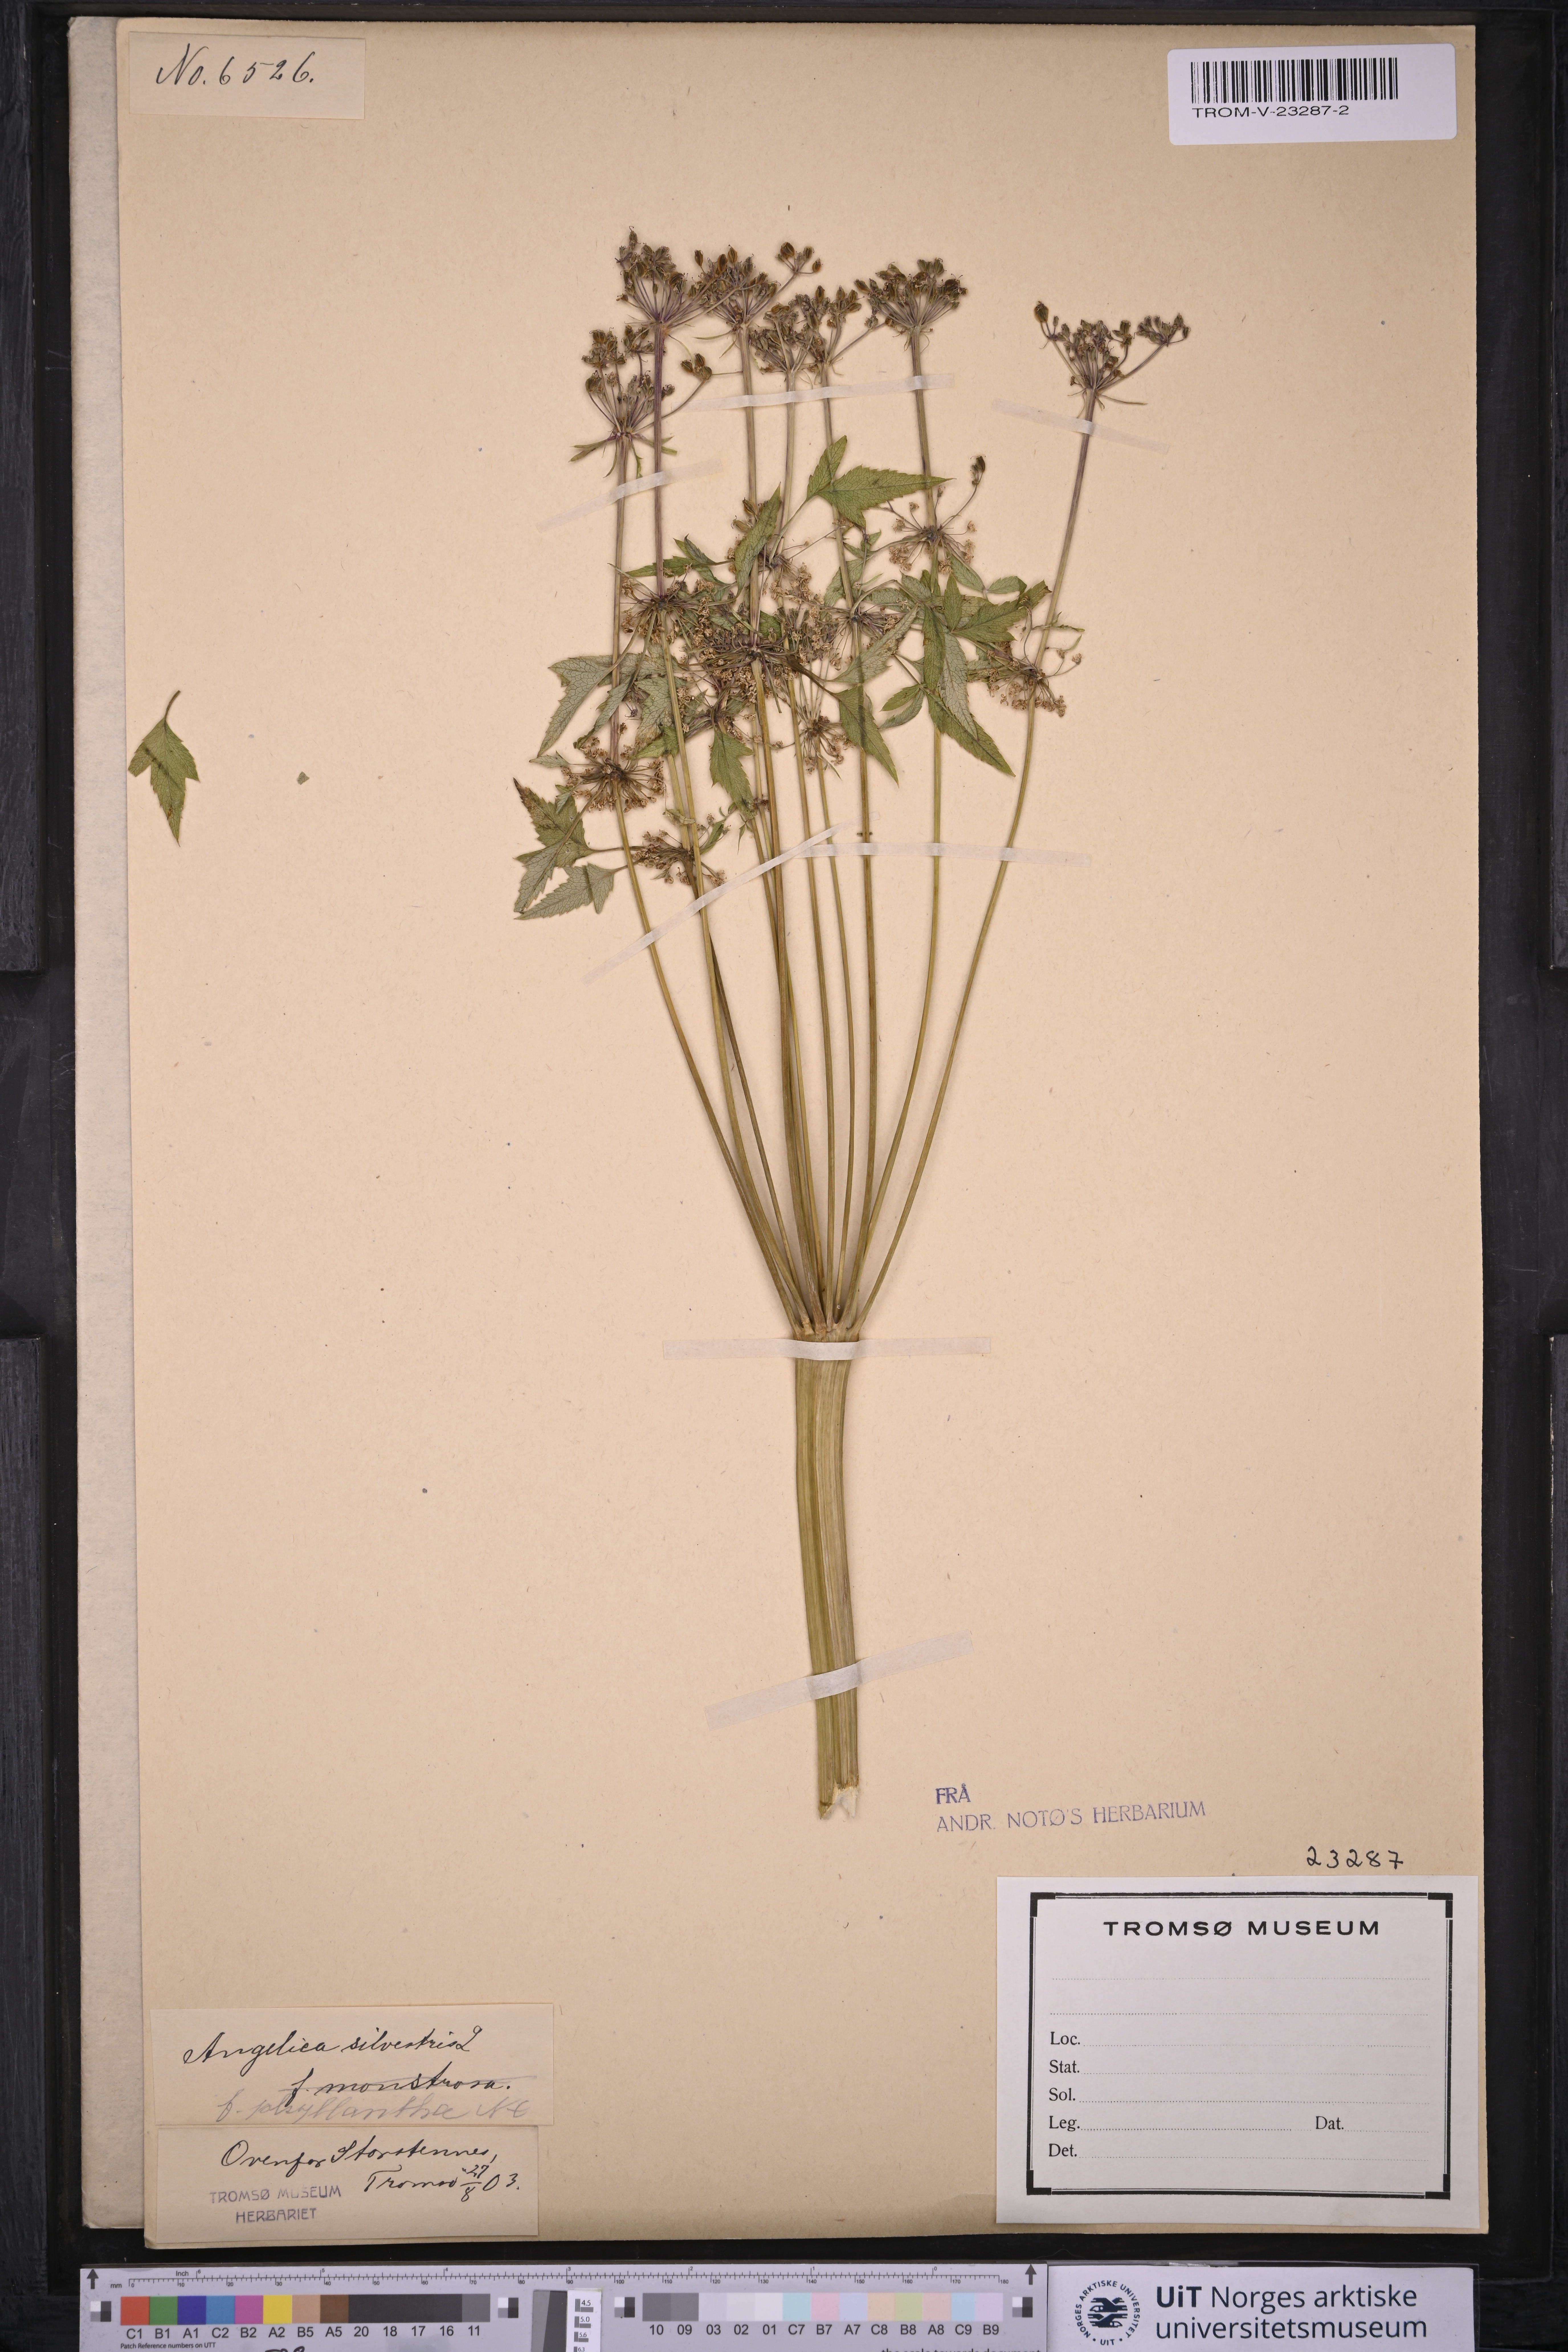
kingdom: Plantae
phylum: Tracheophyta
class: Magnoliopsida
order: Apiales
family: Apiaceae
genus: Angelica
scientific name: Angelica sylvestris
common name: Wild angelica
